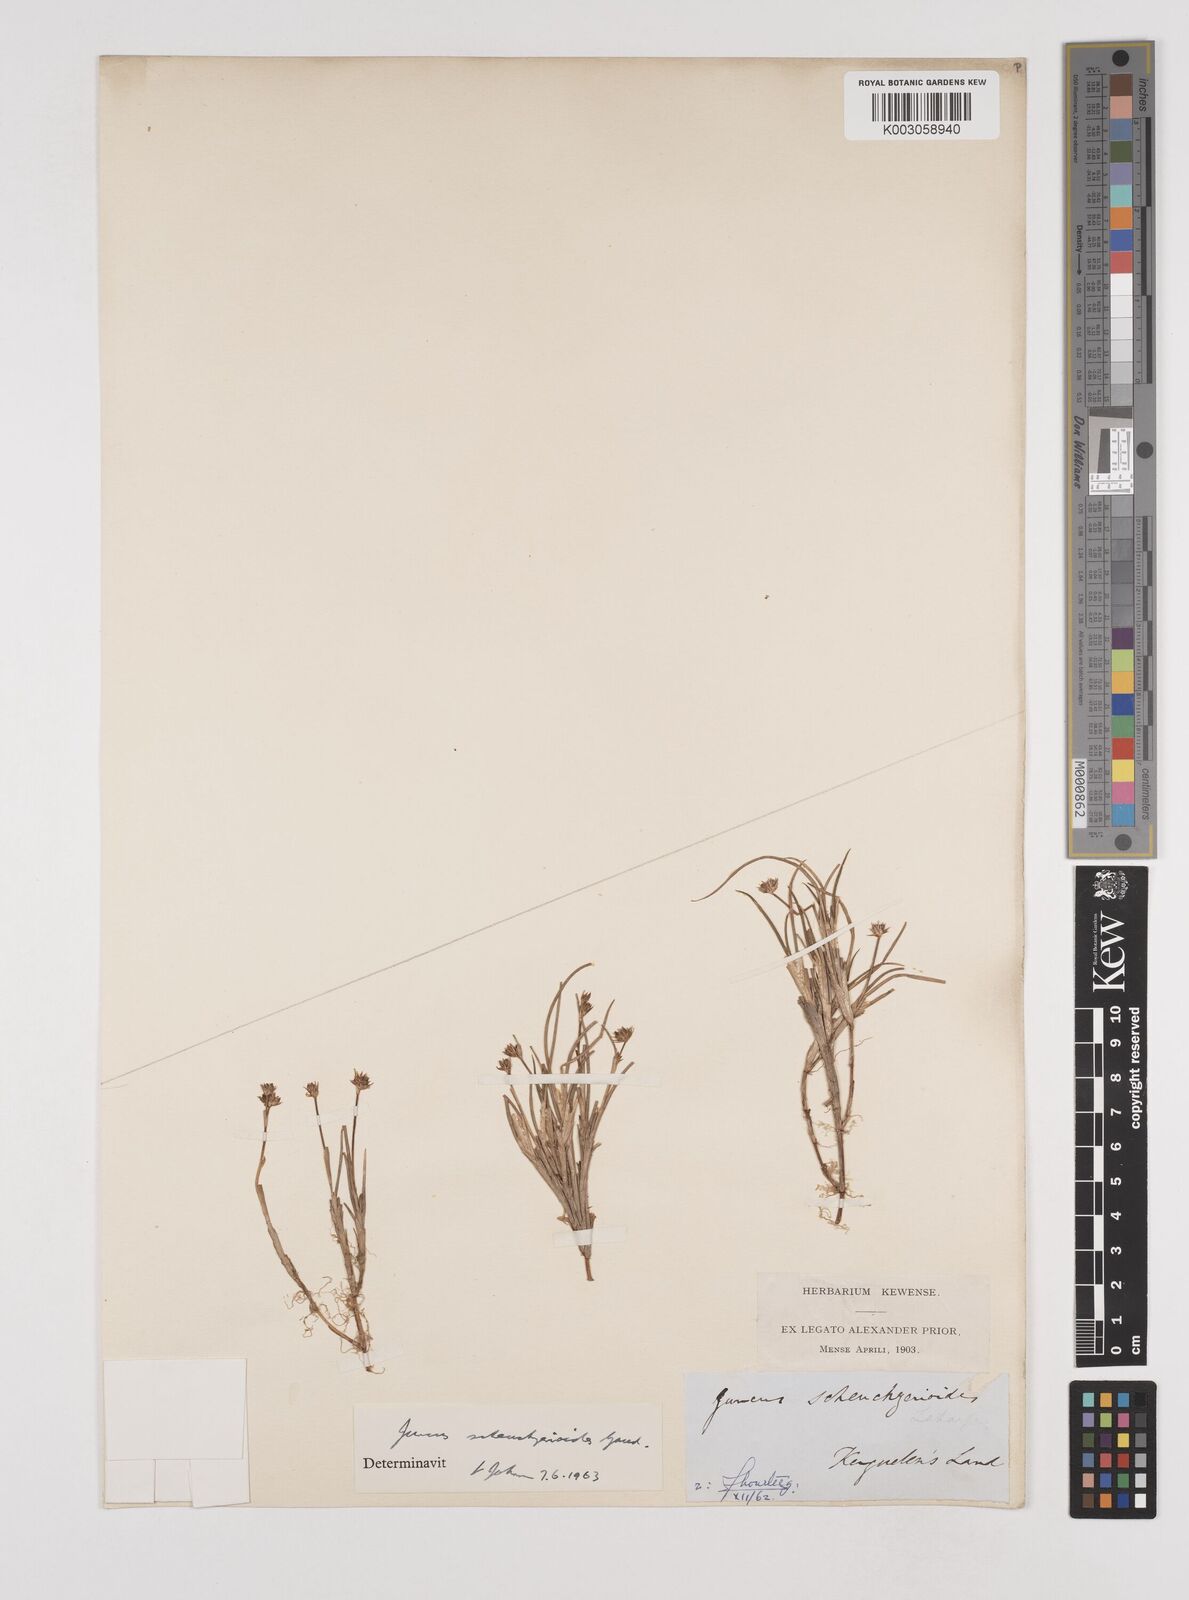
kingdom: Plantae
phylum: Tracheophyta
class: Liliopsida
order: Poales
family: Juncaceae
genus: Juncus
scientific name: Juncus scheuchzerioides
